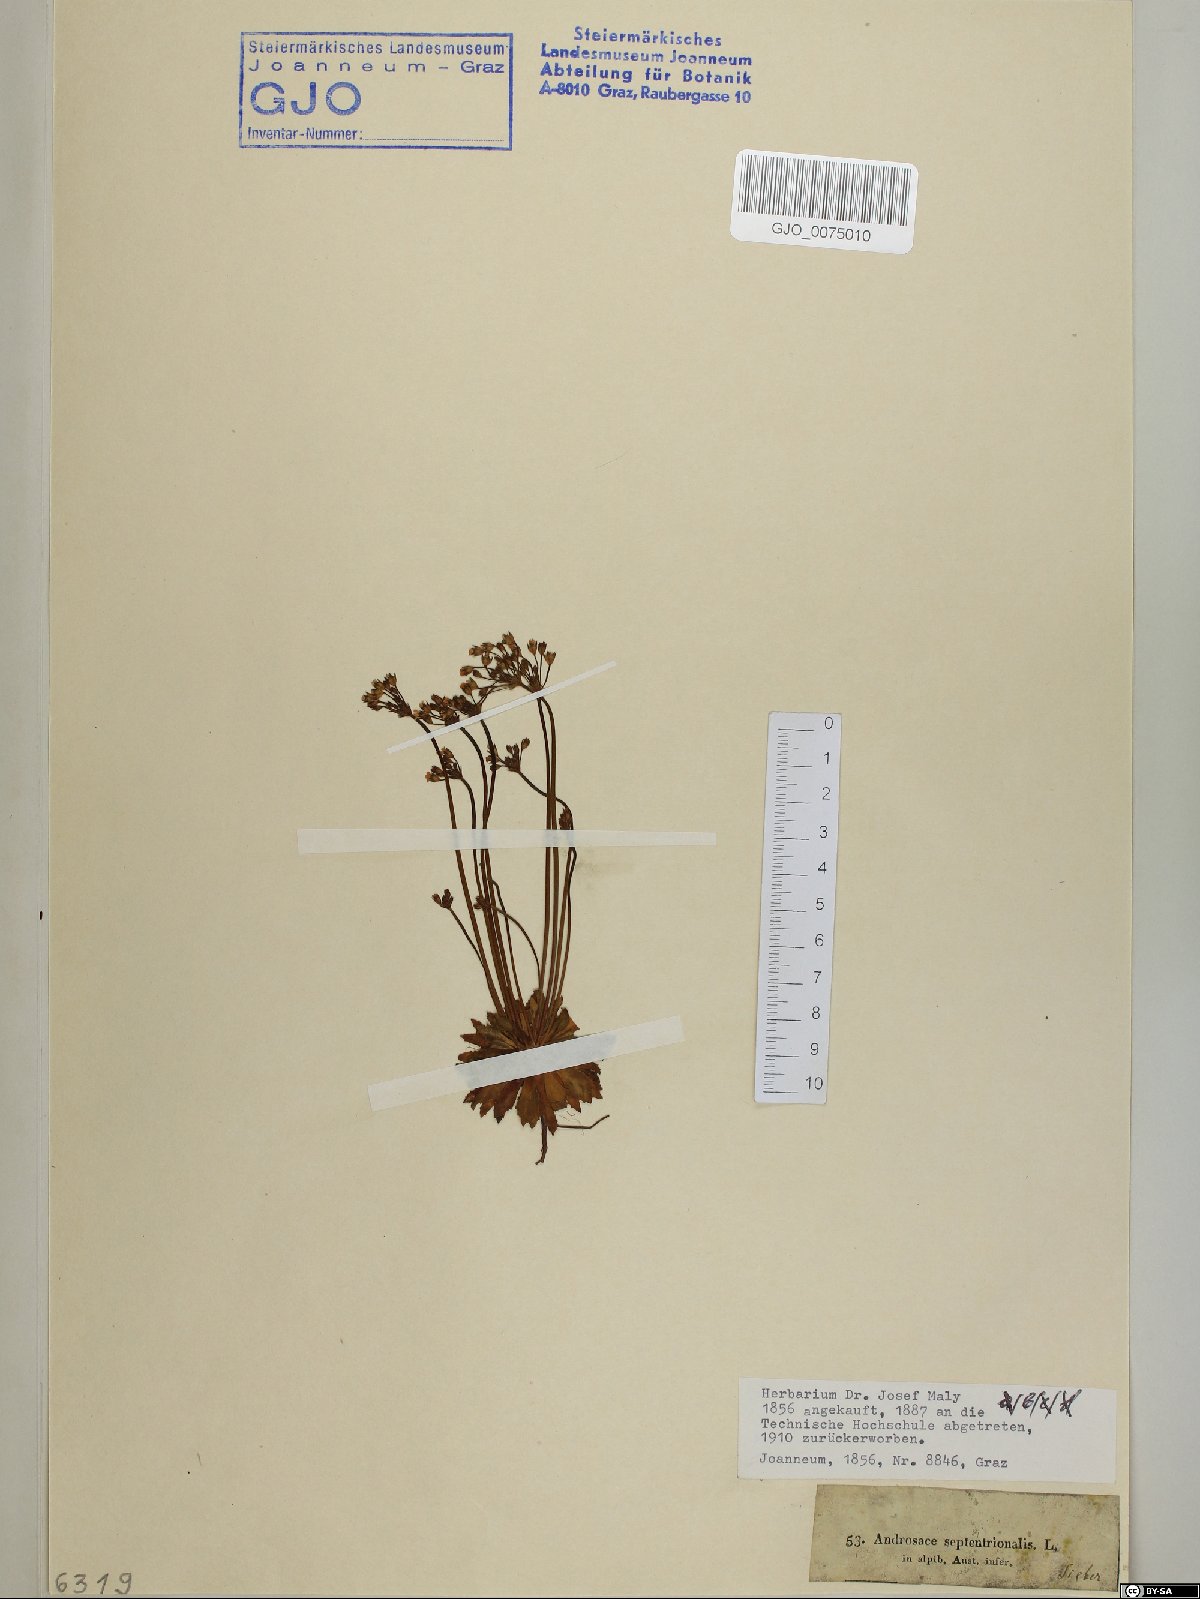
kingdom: Plantae
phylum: Tracheophyta
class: Magnoliopsida
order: Ericales
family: Primulaceae
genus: Androsace
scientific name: Androsace septentrionalis
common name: Hairy northern fairy-candelabra
